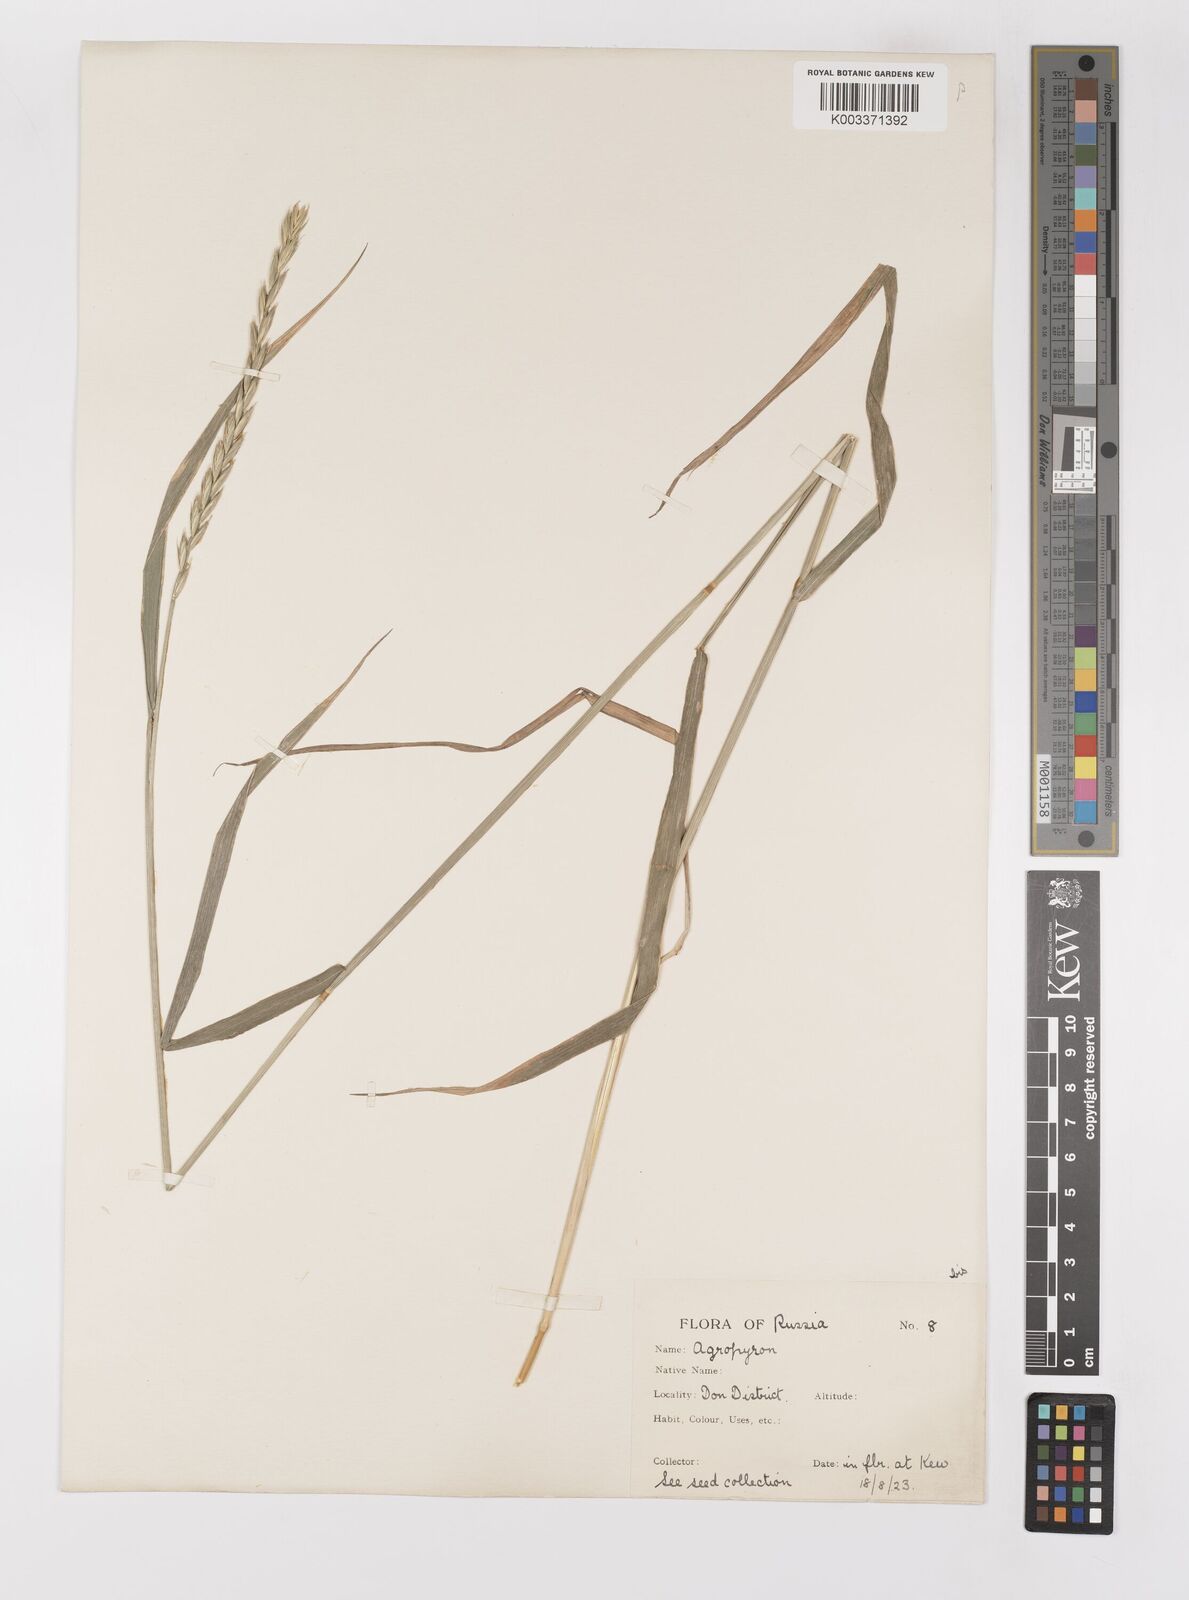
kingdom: Plantae
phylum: Tracheophyta
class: Liliopsida
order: Poales
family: Poaceae
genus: Elymus
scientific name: Elymus repens
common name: Quackgrass
